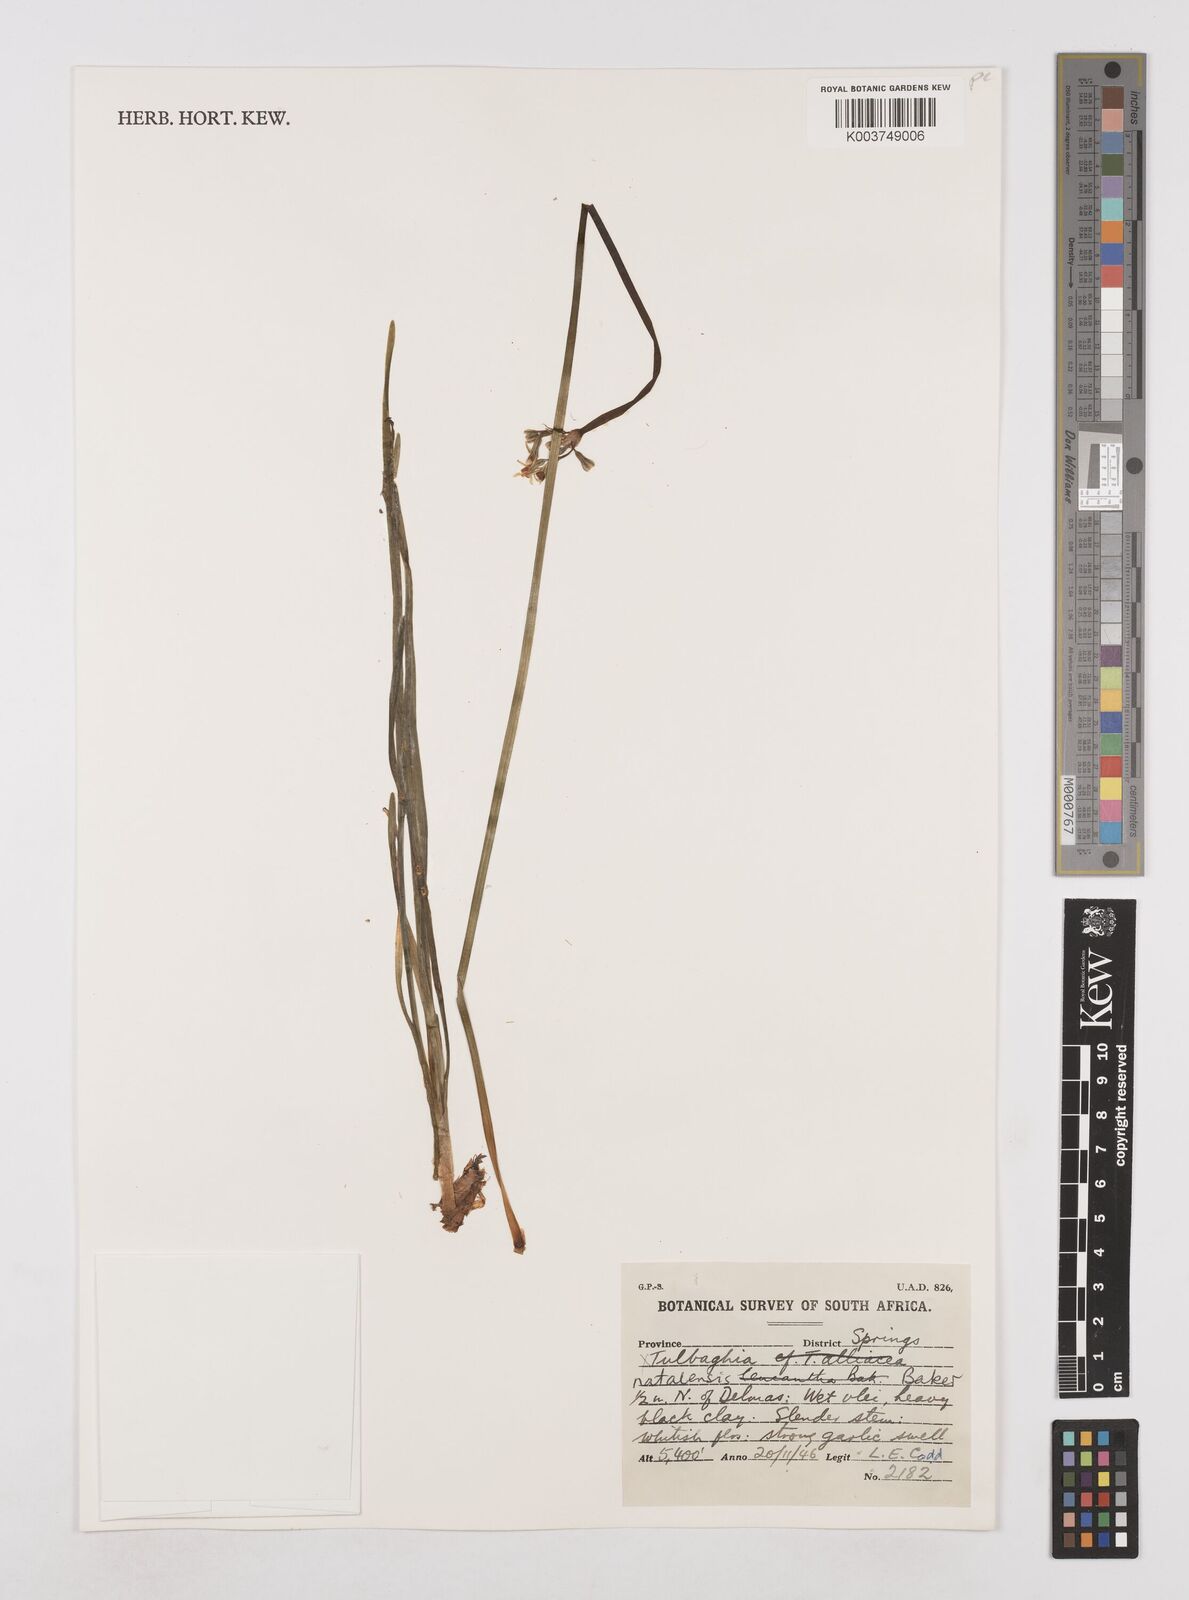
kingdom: Plantae
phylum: Tracheophyta
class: Liliopsida
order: Asparagales
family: Amaryllidaceae
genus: Tulbaghia
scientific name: Tulbaghia natalensis
